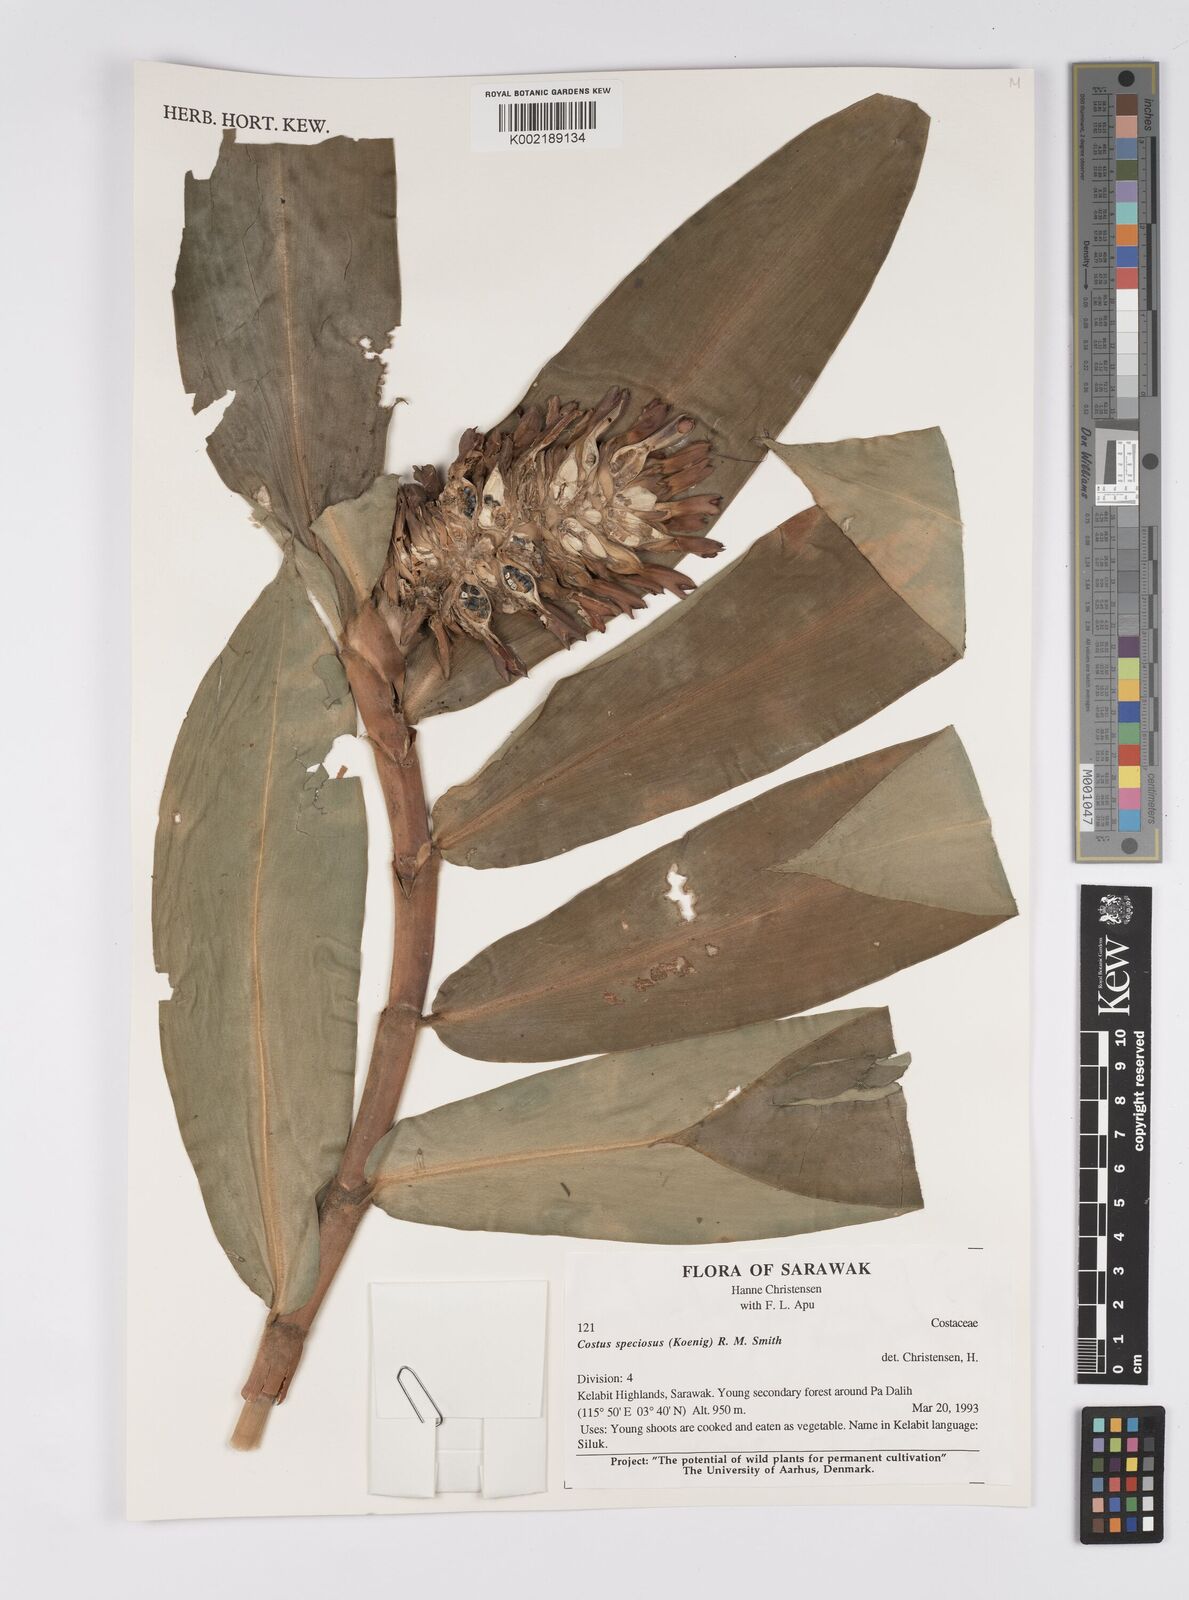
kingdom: Plantae
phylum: Tracheophyta
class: Liliopsida
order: Zingiberales
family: Costaceae
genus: Hellenia
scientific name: Hellenia speciosa
